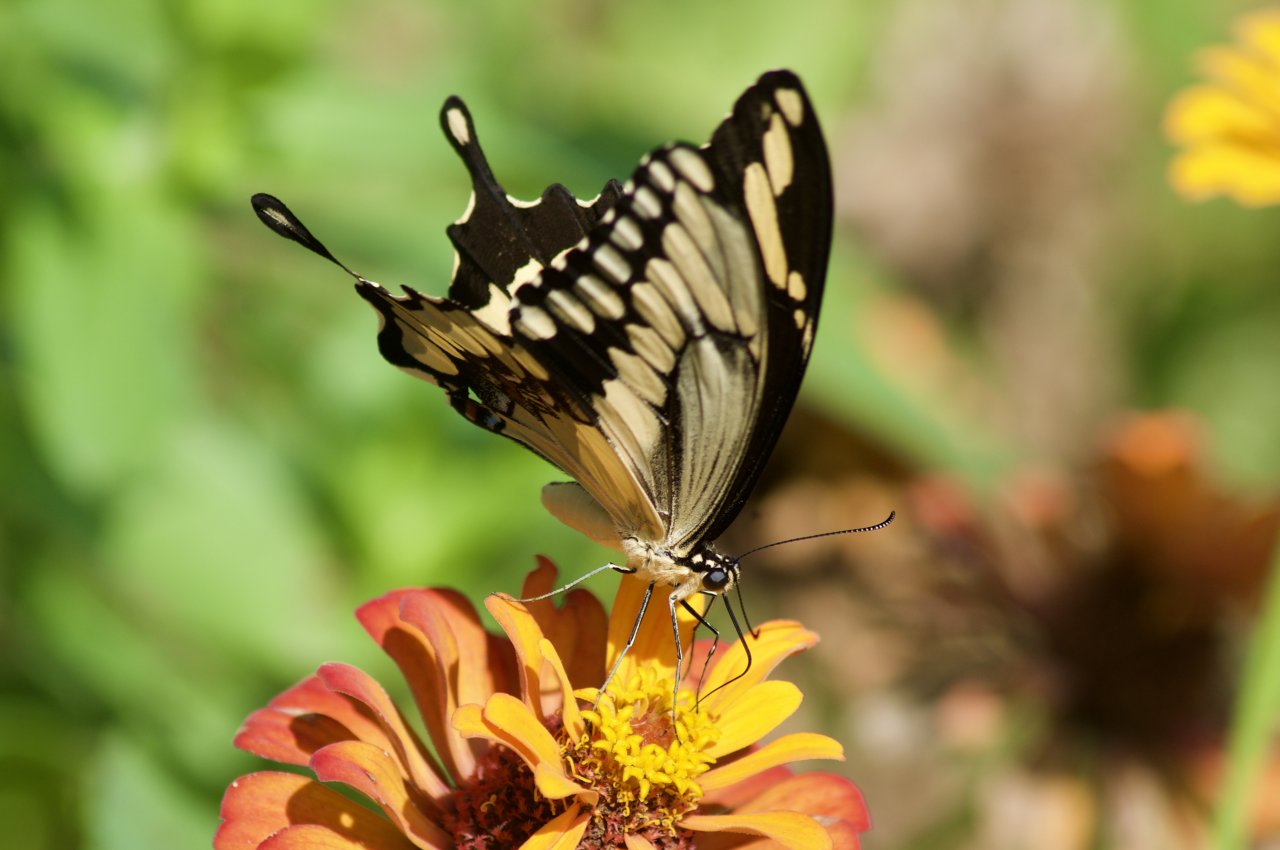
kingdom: Animalia
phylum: Arthropoda
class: Insecta
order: Lepidoptera
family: Papilionidae
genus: Papilio
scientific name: Papilio cresphontes
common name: Eastern Giant Swallowtail
